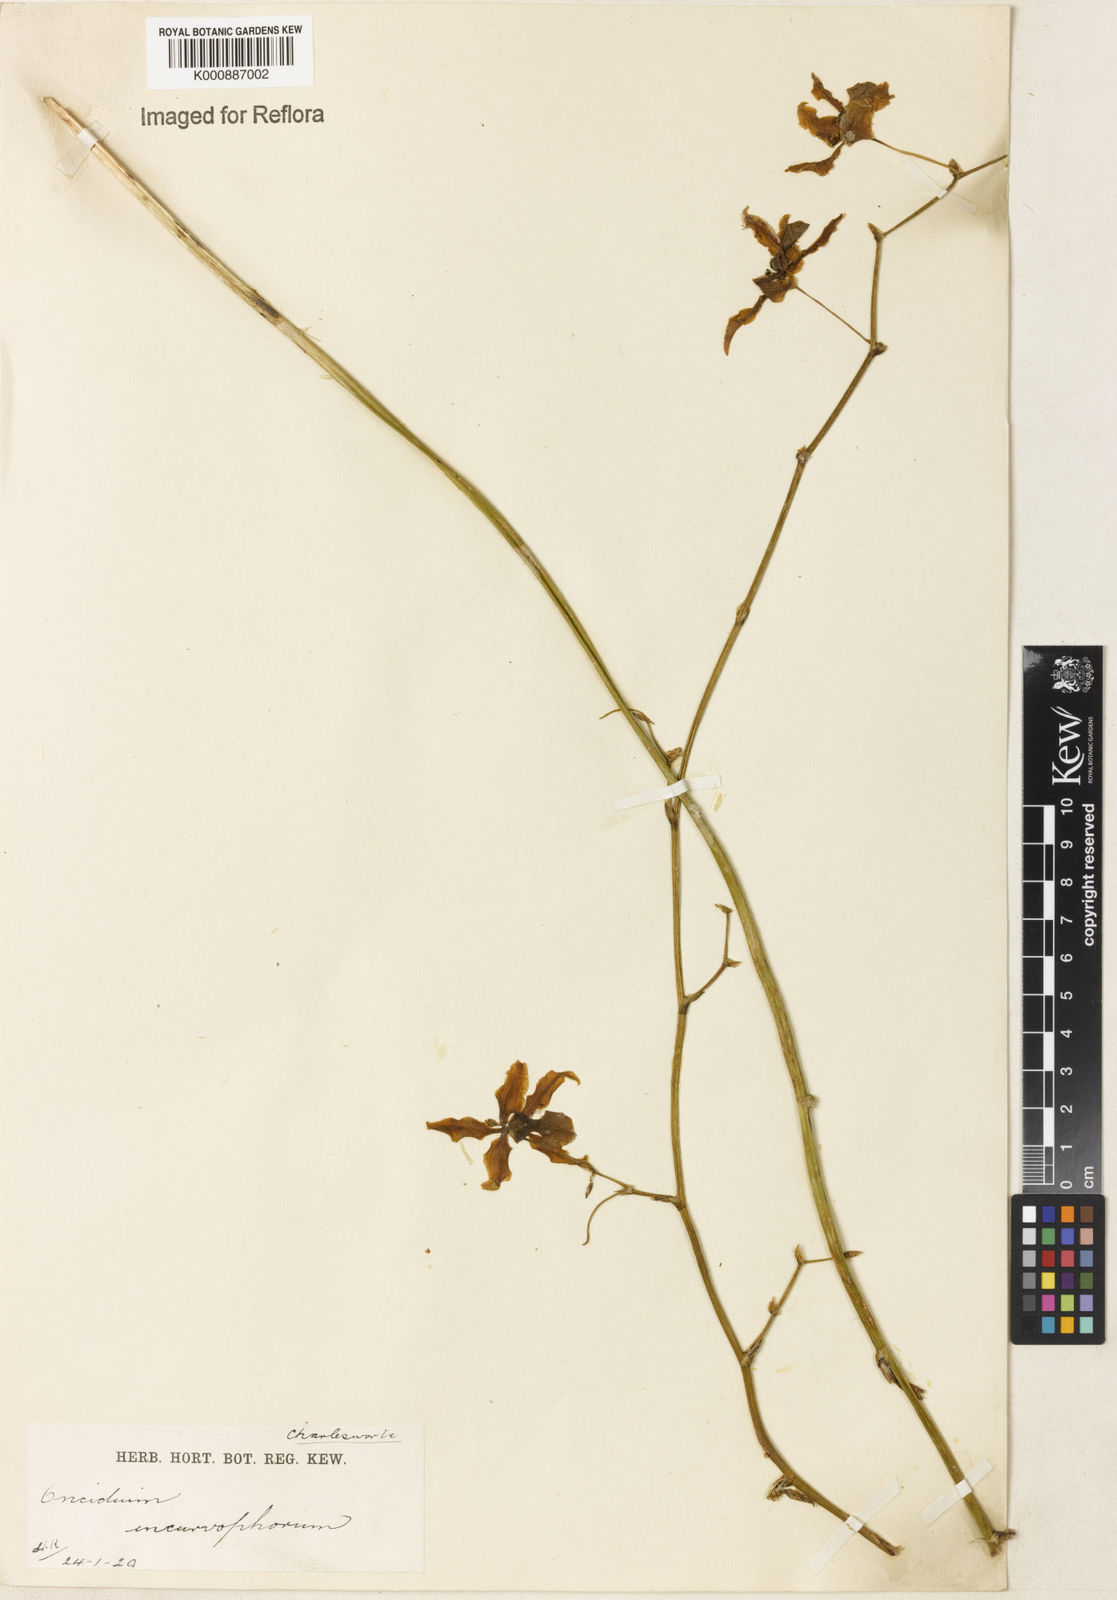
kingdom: Plantae
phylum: Tracheophyta
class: Liliopsida
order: Asparagales
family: Orchidaceae
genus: Oncidium
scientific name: Oncidium
